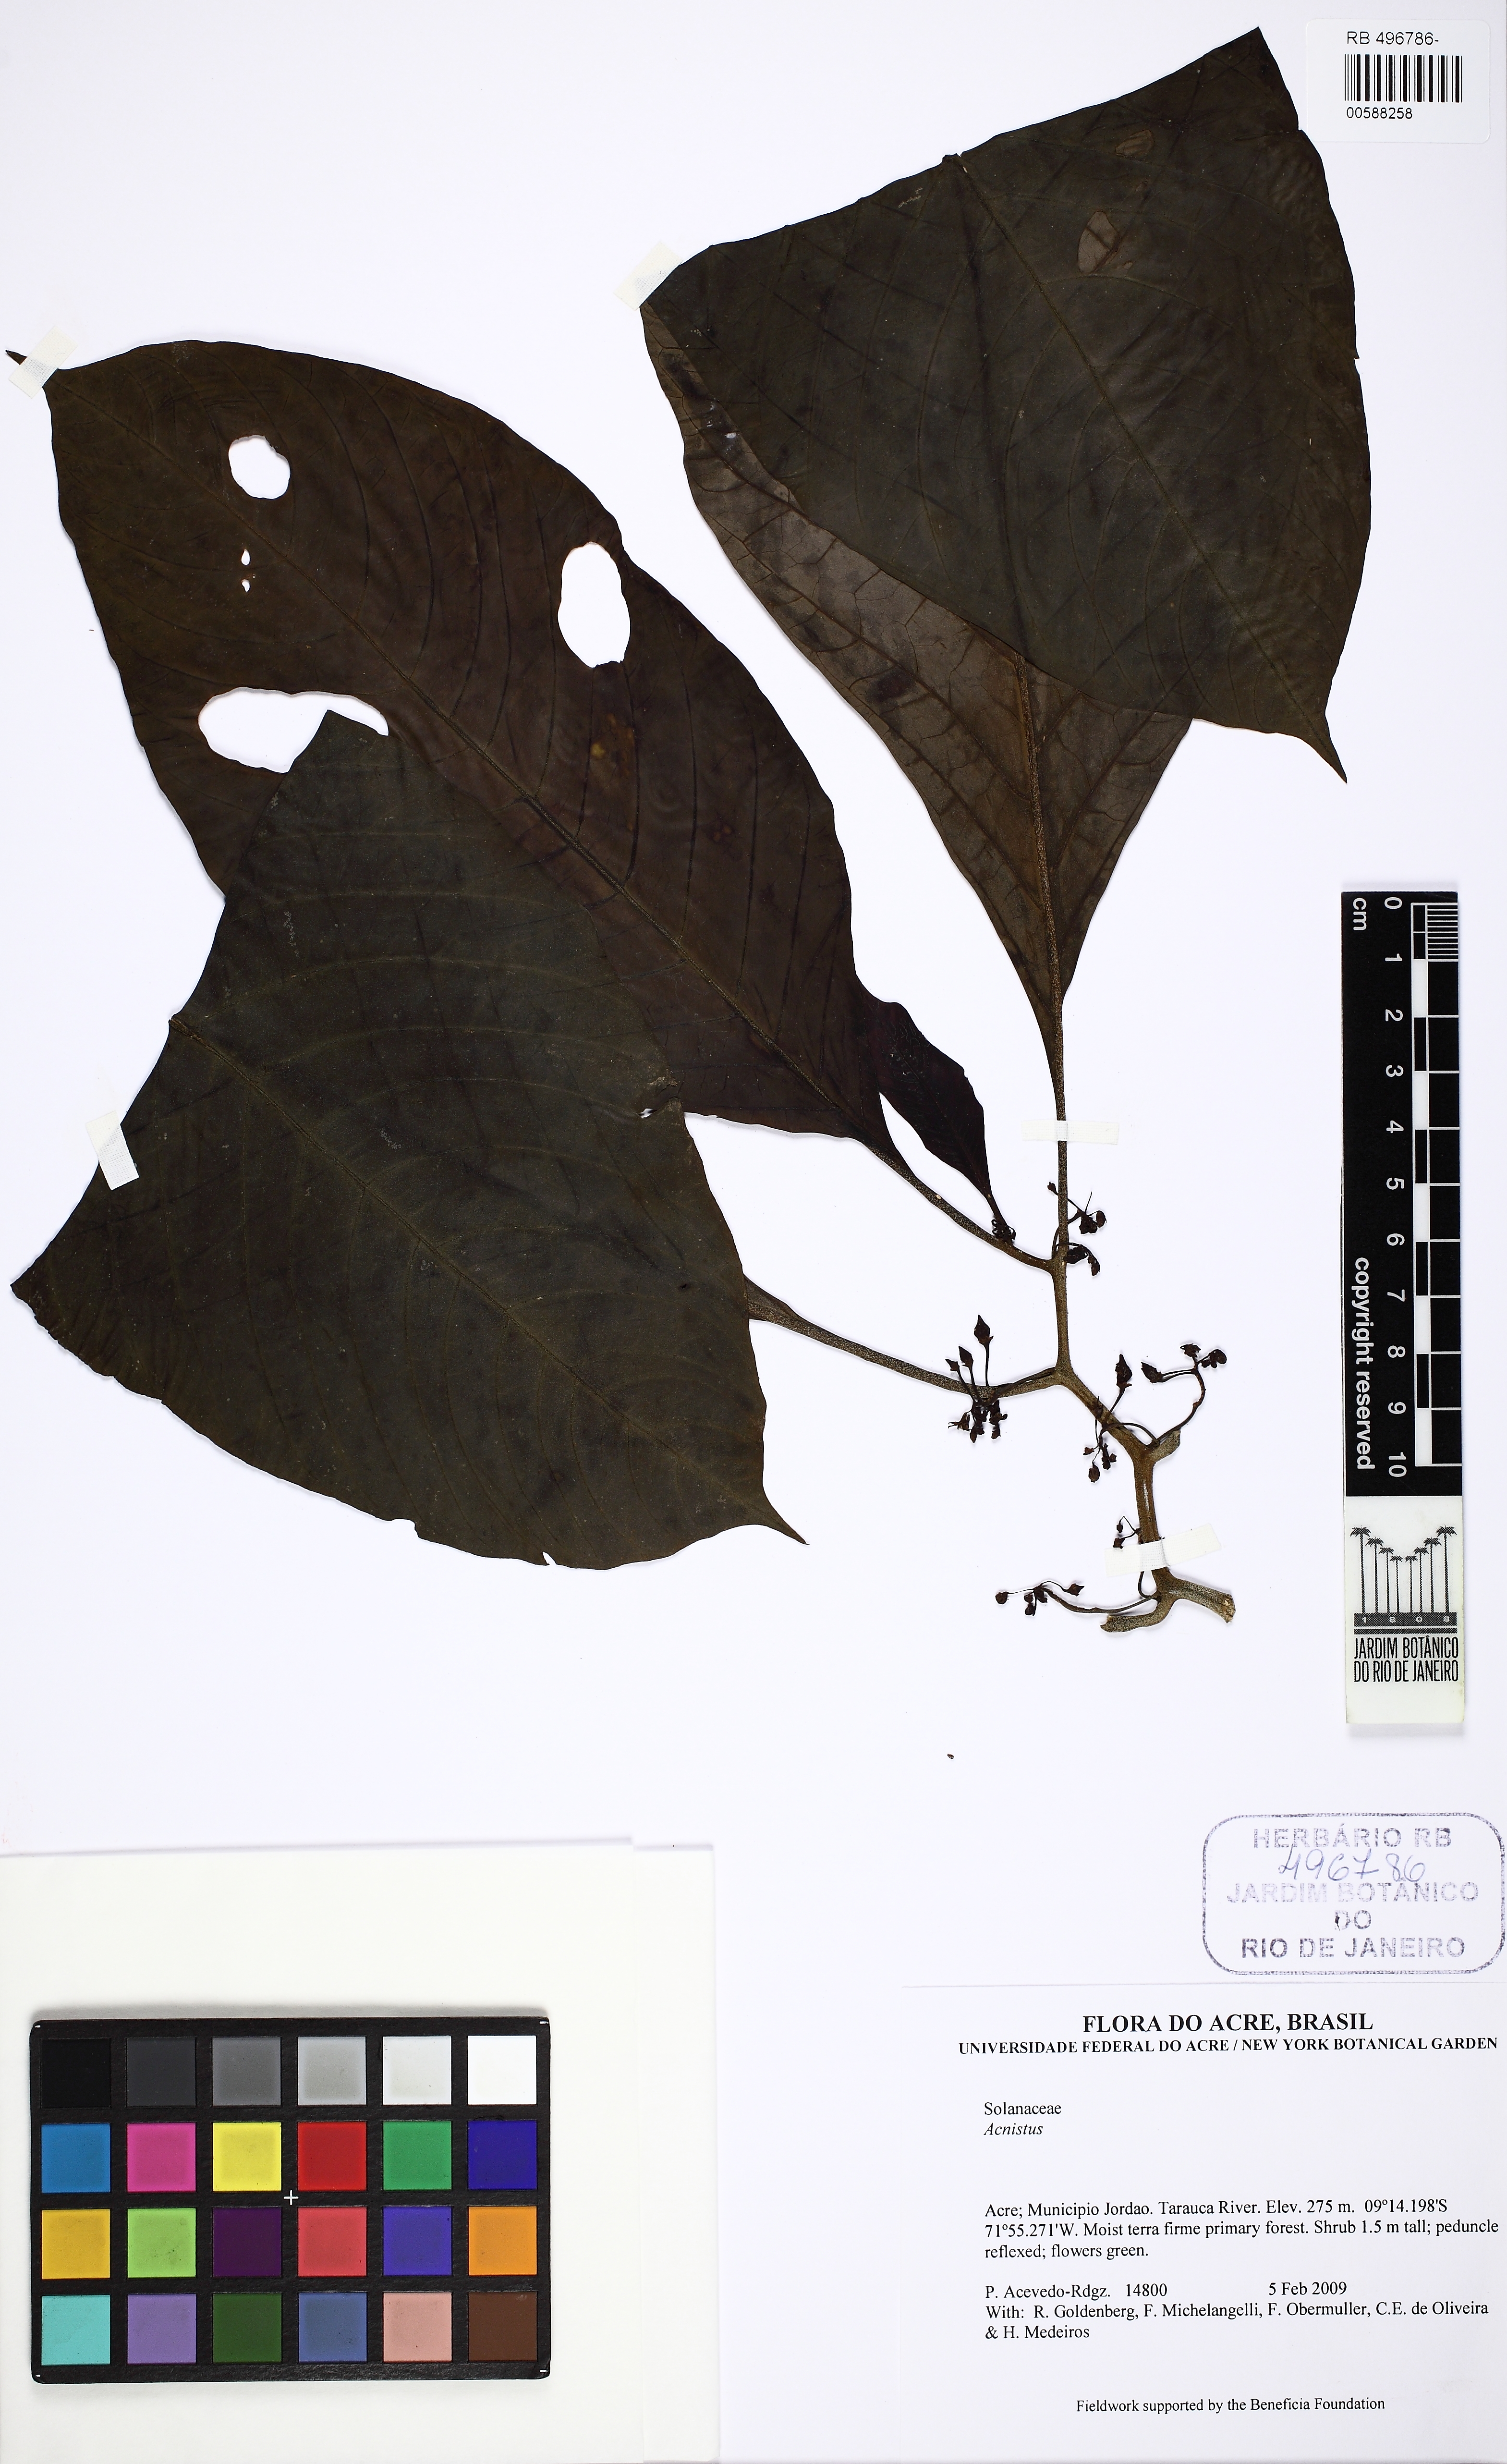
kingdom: Plantae
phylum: Tracheophyta
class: Magnoliopsida
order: Solanales
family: Solanaceae
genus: Iochroma
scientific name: Iochroma Acnistus spec
